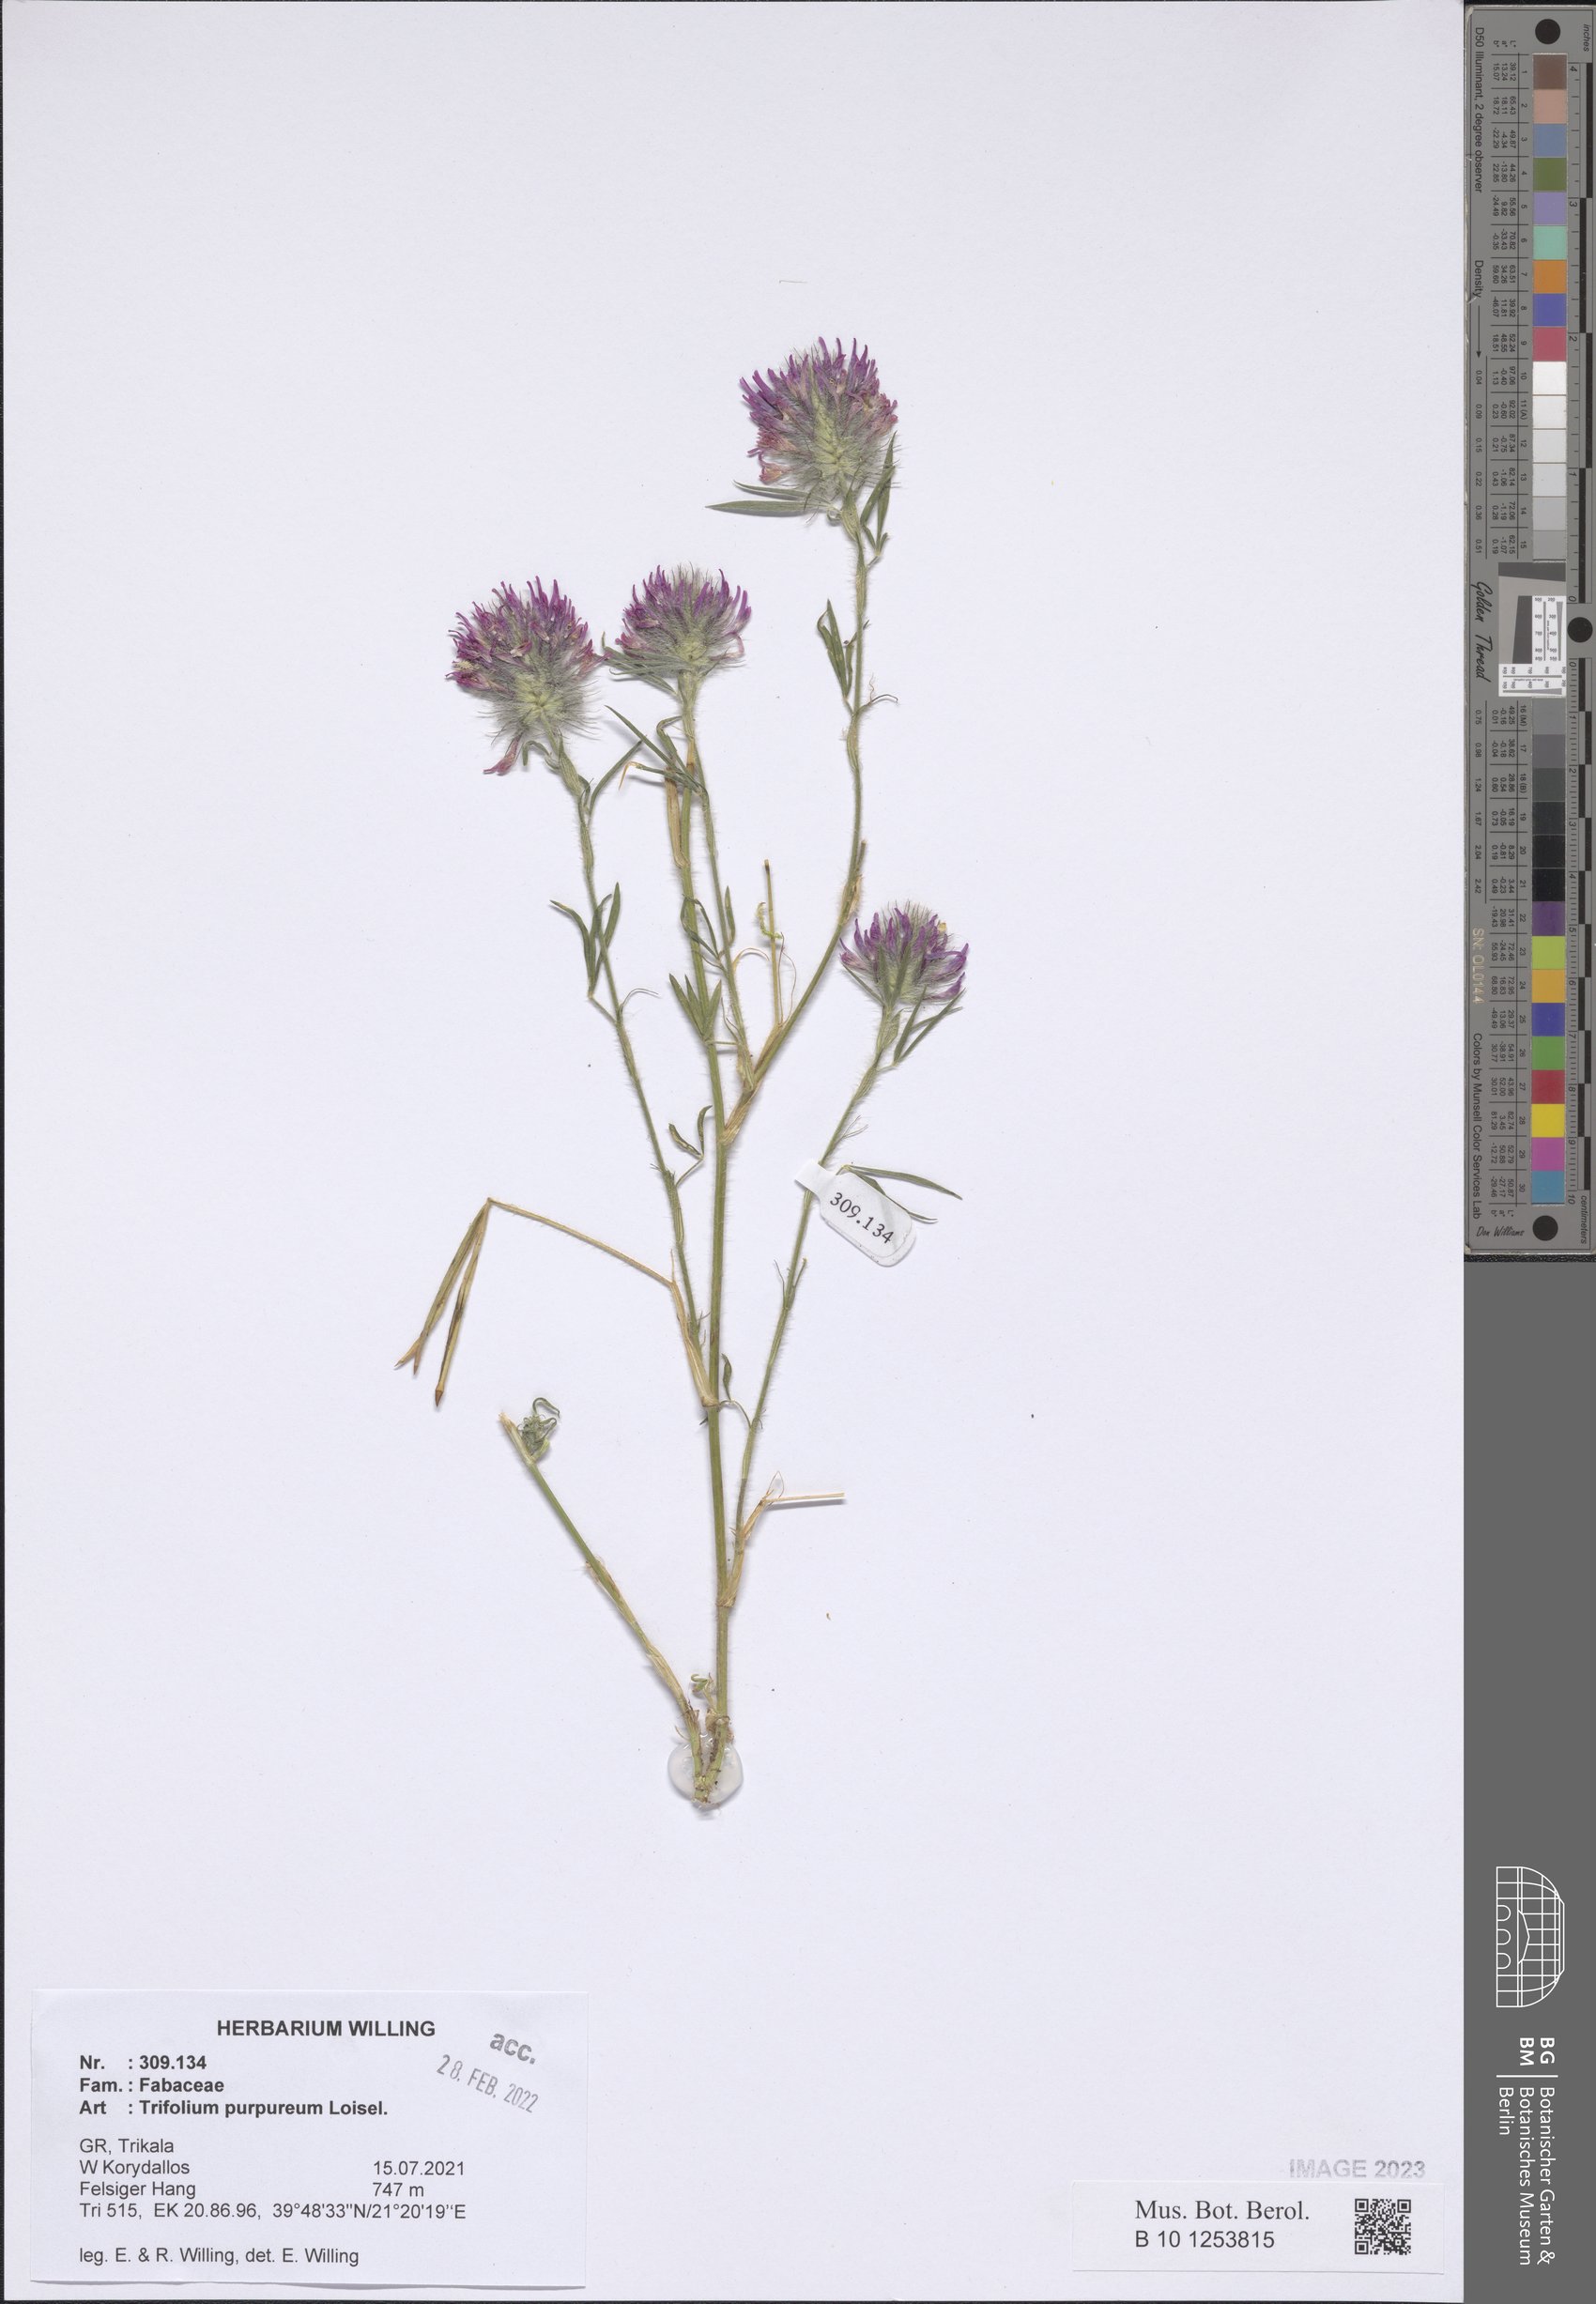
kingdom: Plantae
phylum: Tracheophyta
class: Magnoliopsida
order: Fabales
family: Fabaceae
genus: Trifolium
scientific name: Trifolium purpureum
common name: Purple clover
